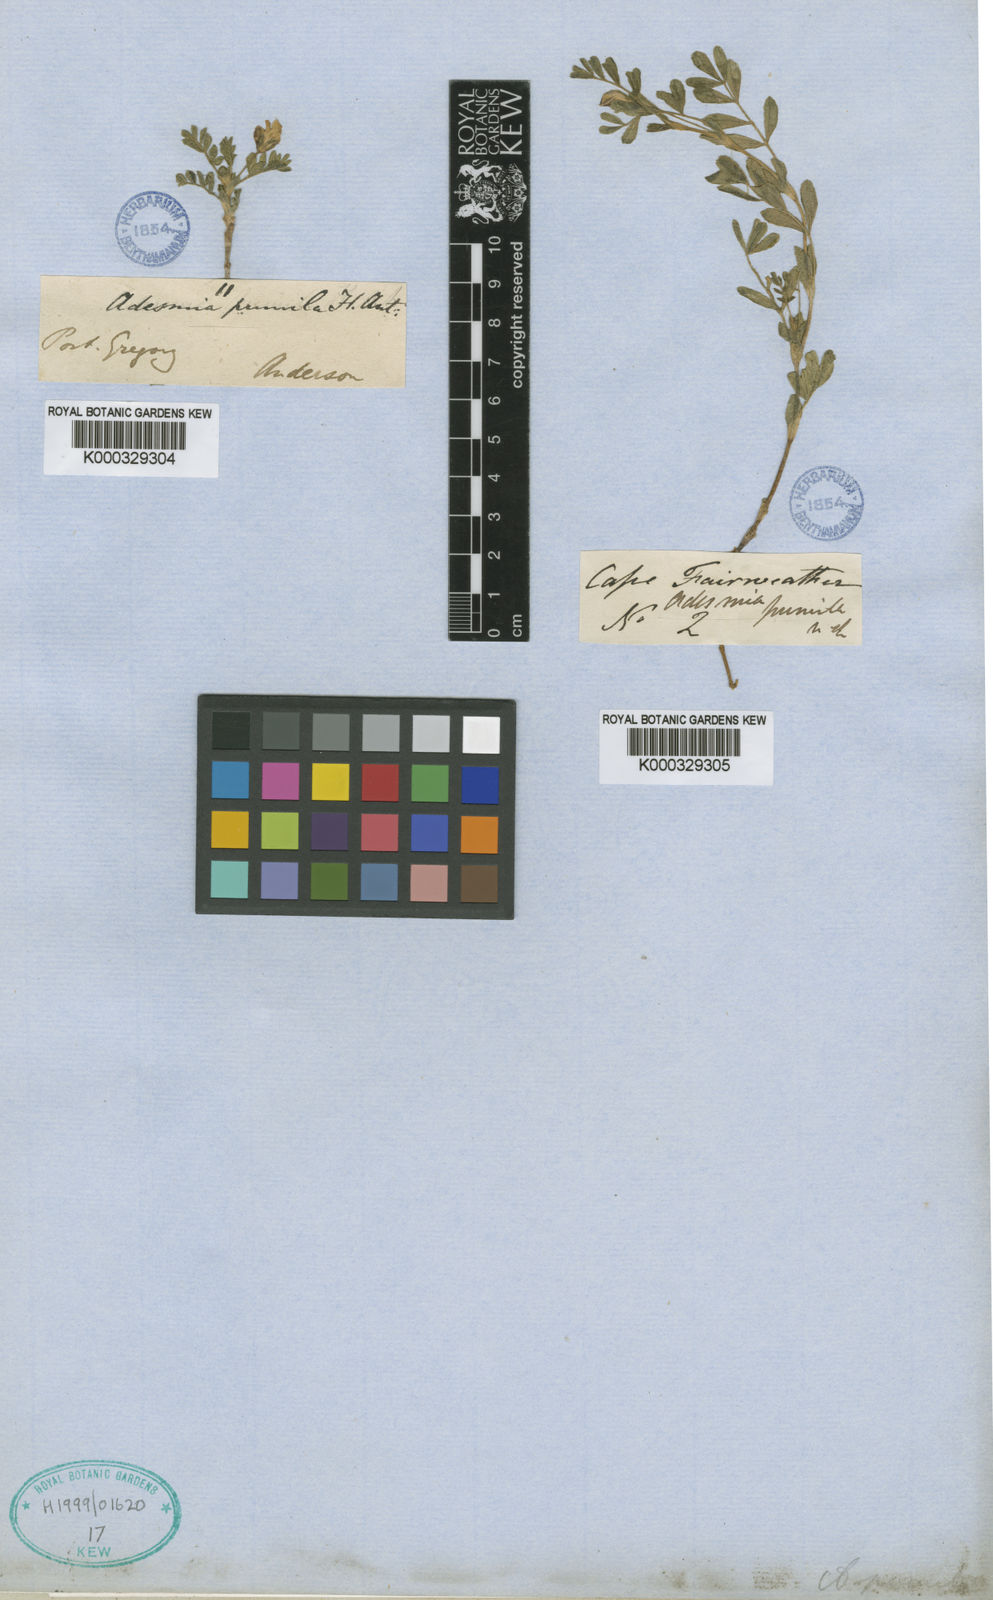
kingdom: Plantae
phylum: Tracheophyta
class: Magnoliopsida
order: Fabales
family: Fabaceae
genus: Adesmia
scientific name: Adesmia pumila
